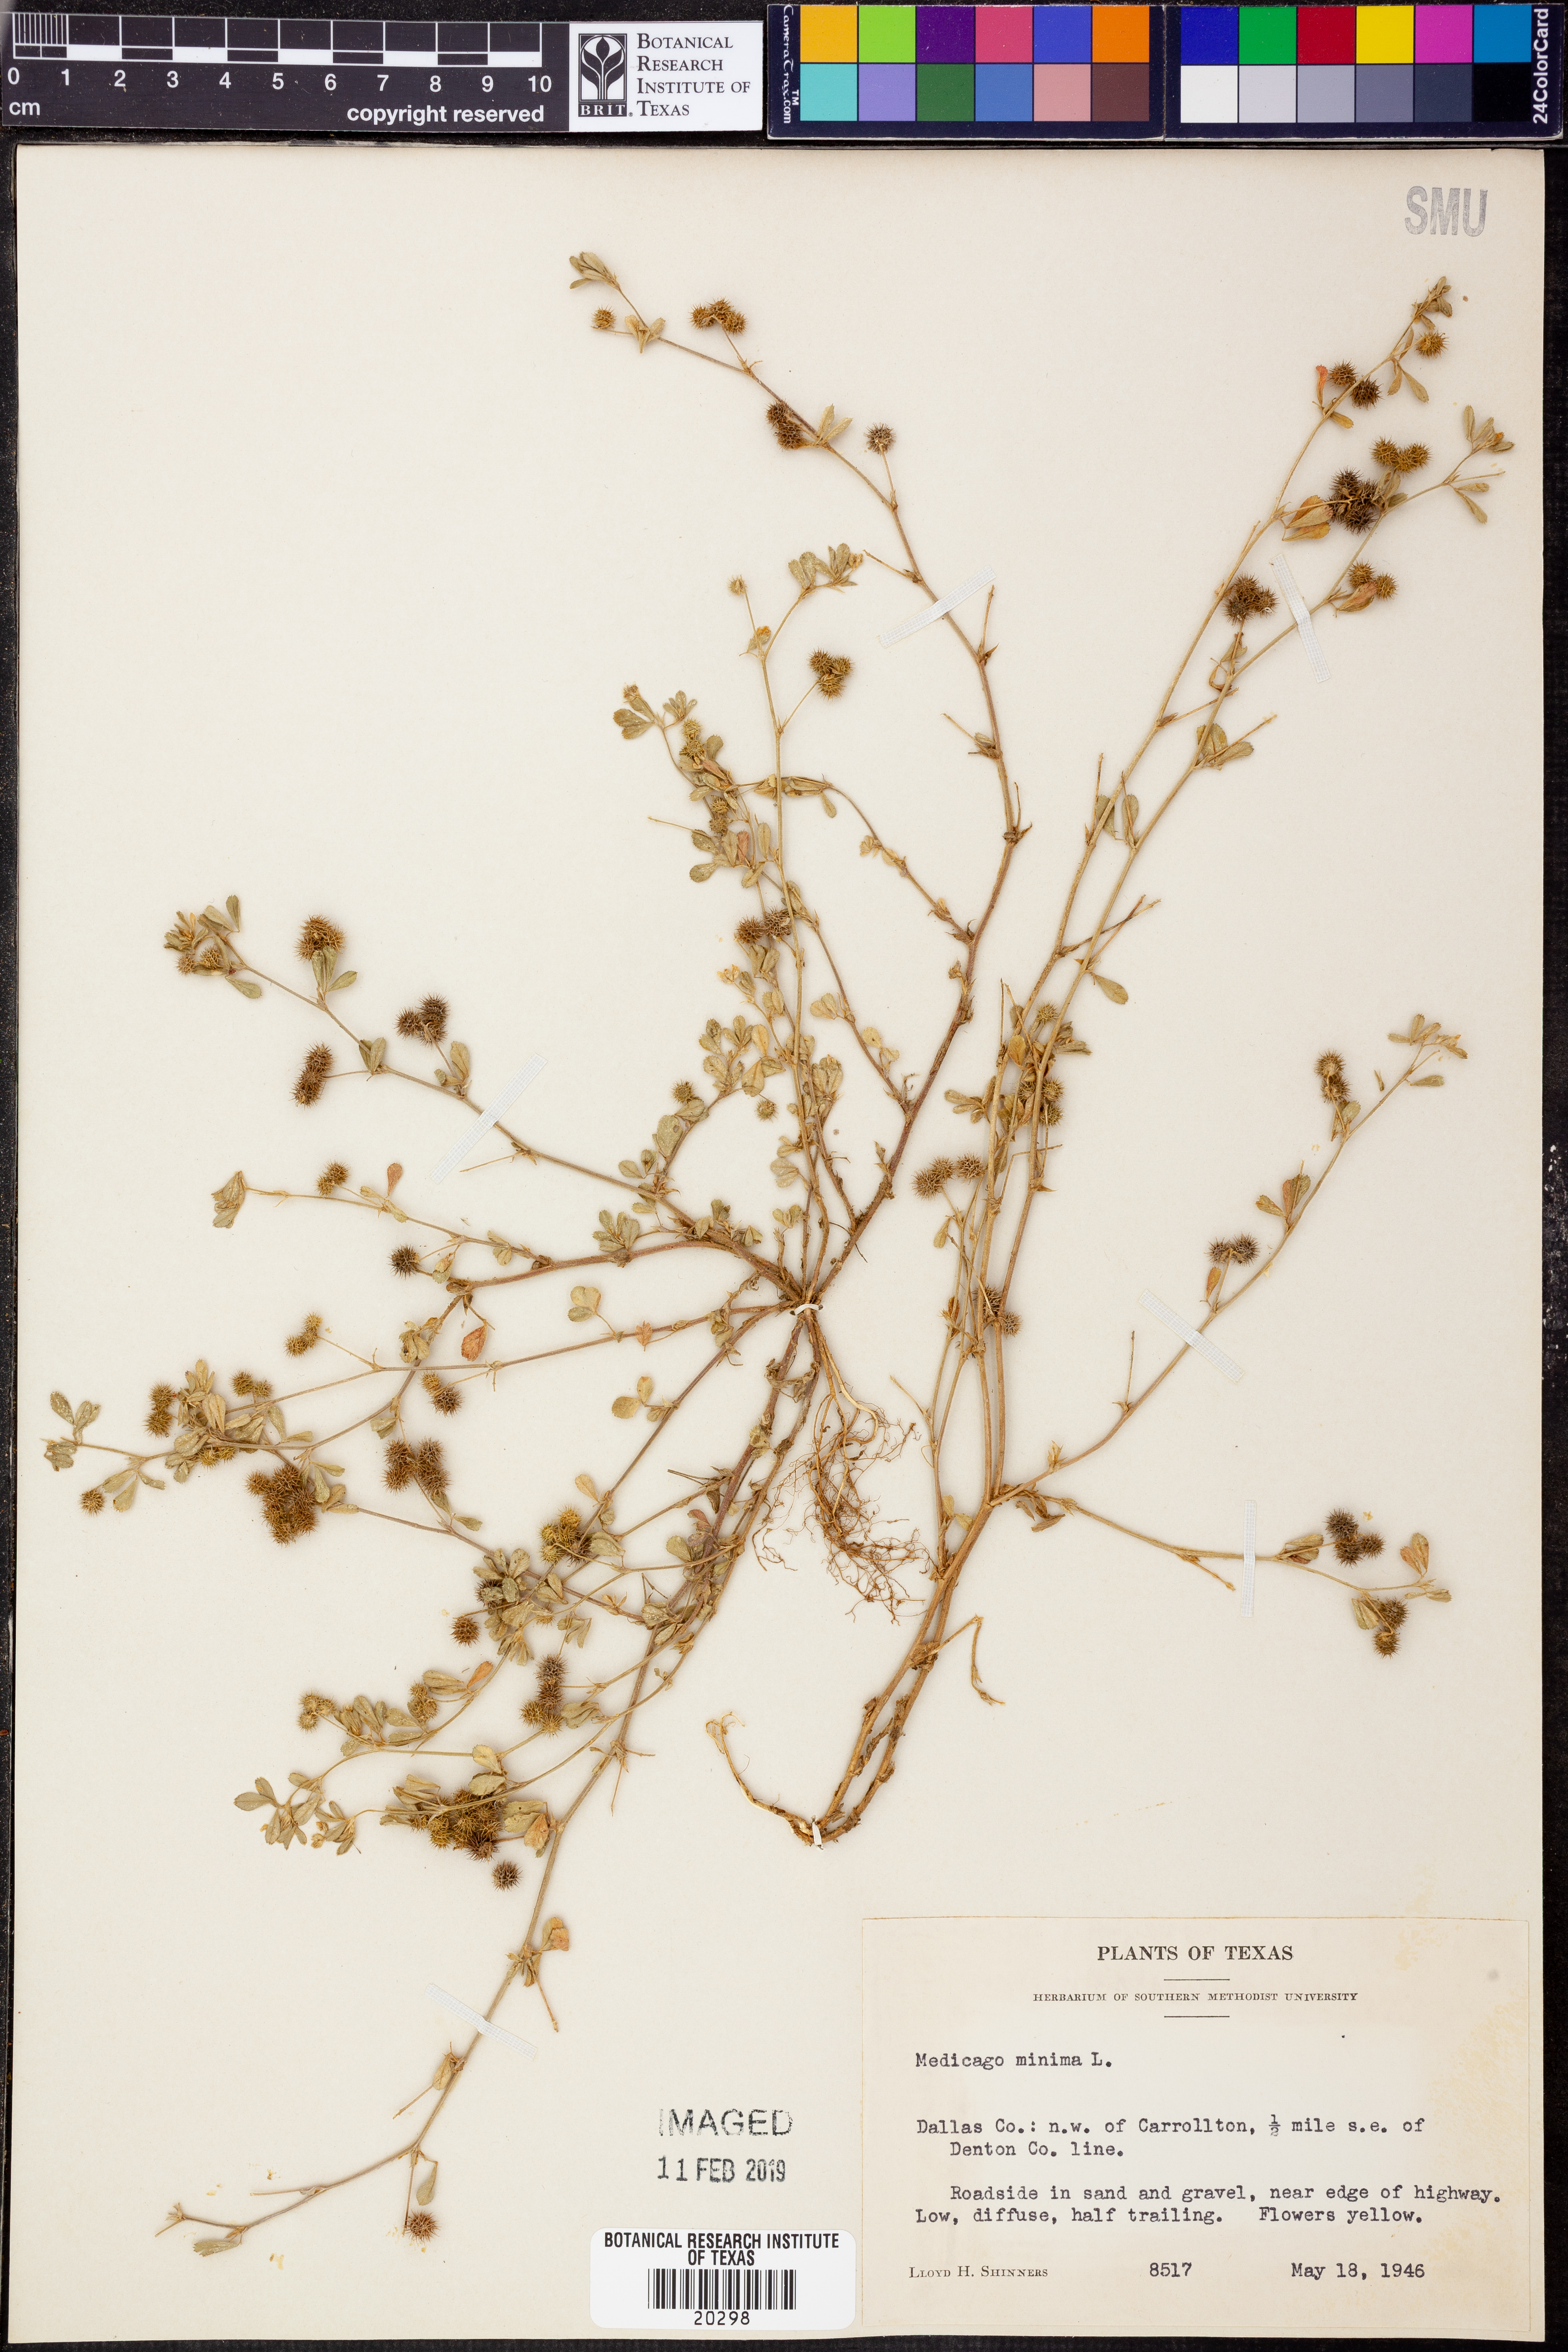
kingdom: Plantae
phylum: Tracheophyta
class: Magnoliopsida
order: Fabales
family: Fabaceae
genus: Medicago
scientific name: Medicago minima
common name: Little bur-clover
